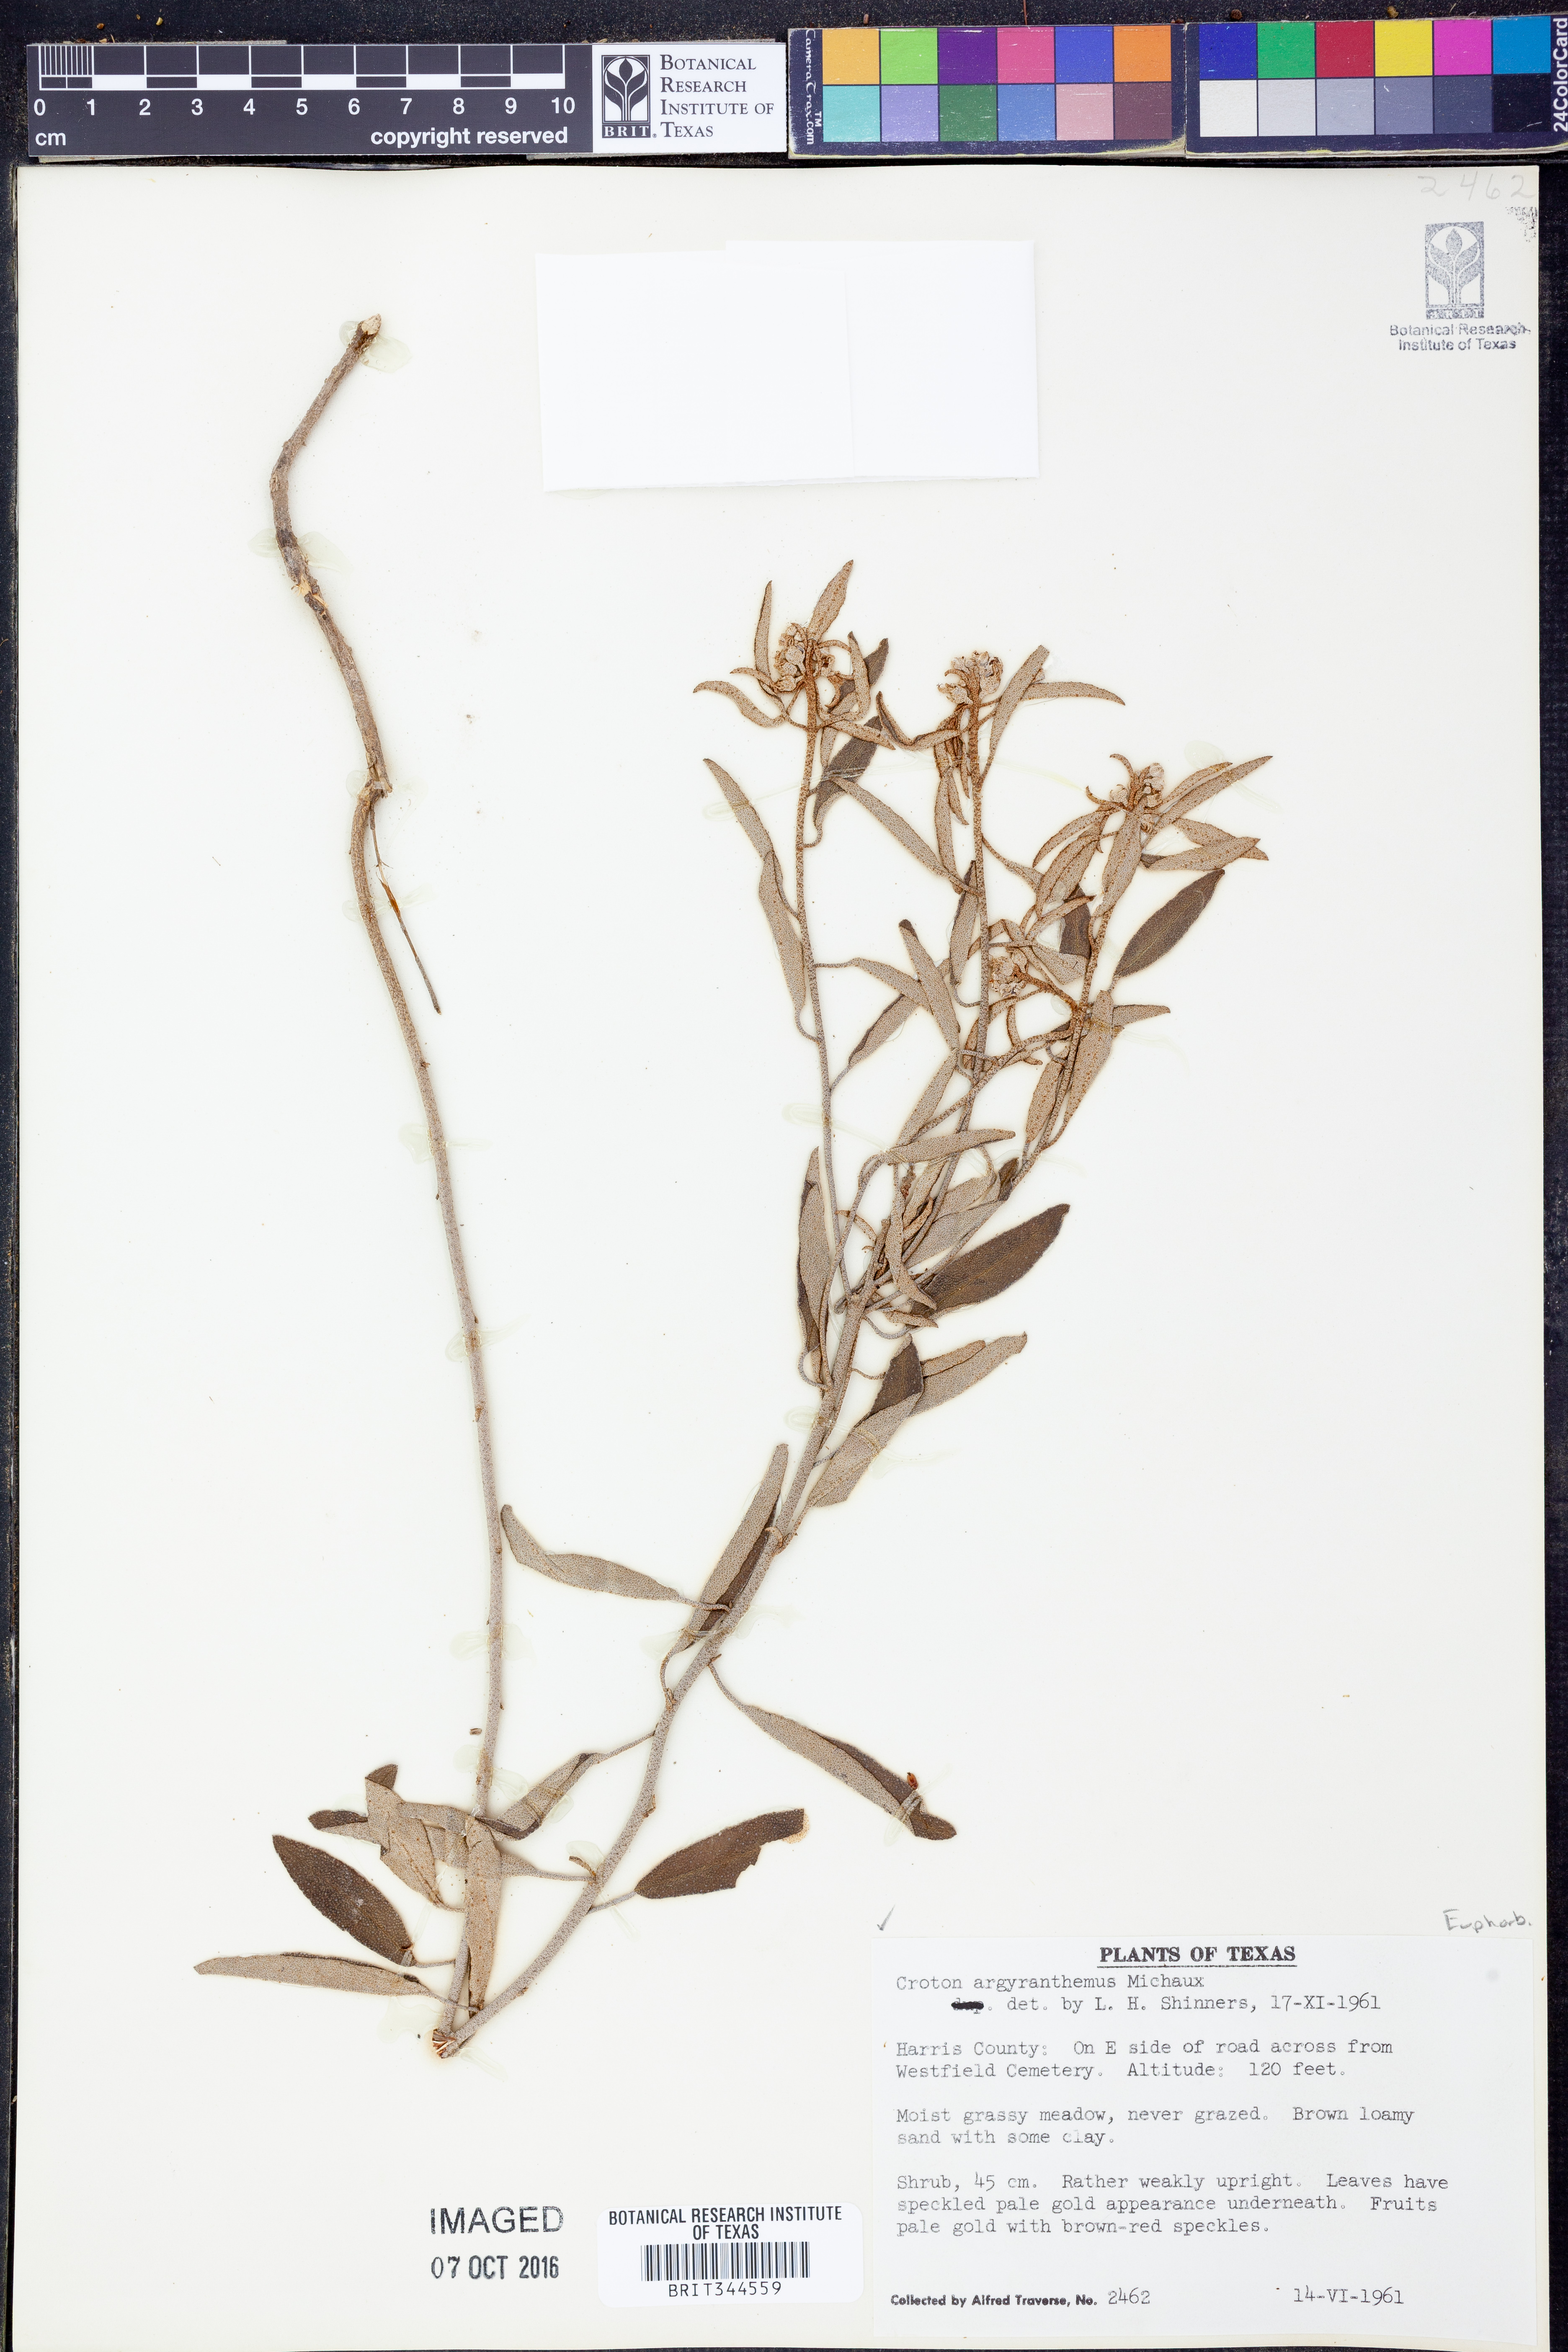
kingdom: Plantae
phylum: Tracheophyta
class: Magnoliopsida
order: Malpighiales
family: Euphorbiaceae
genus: Croton
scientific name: Croton argyranthemus
